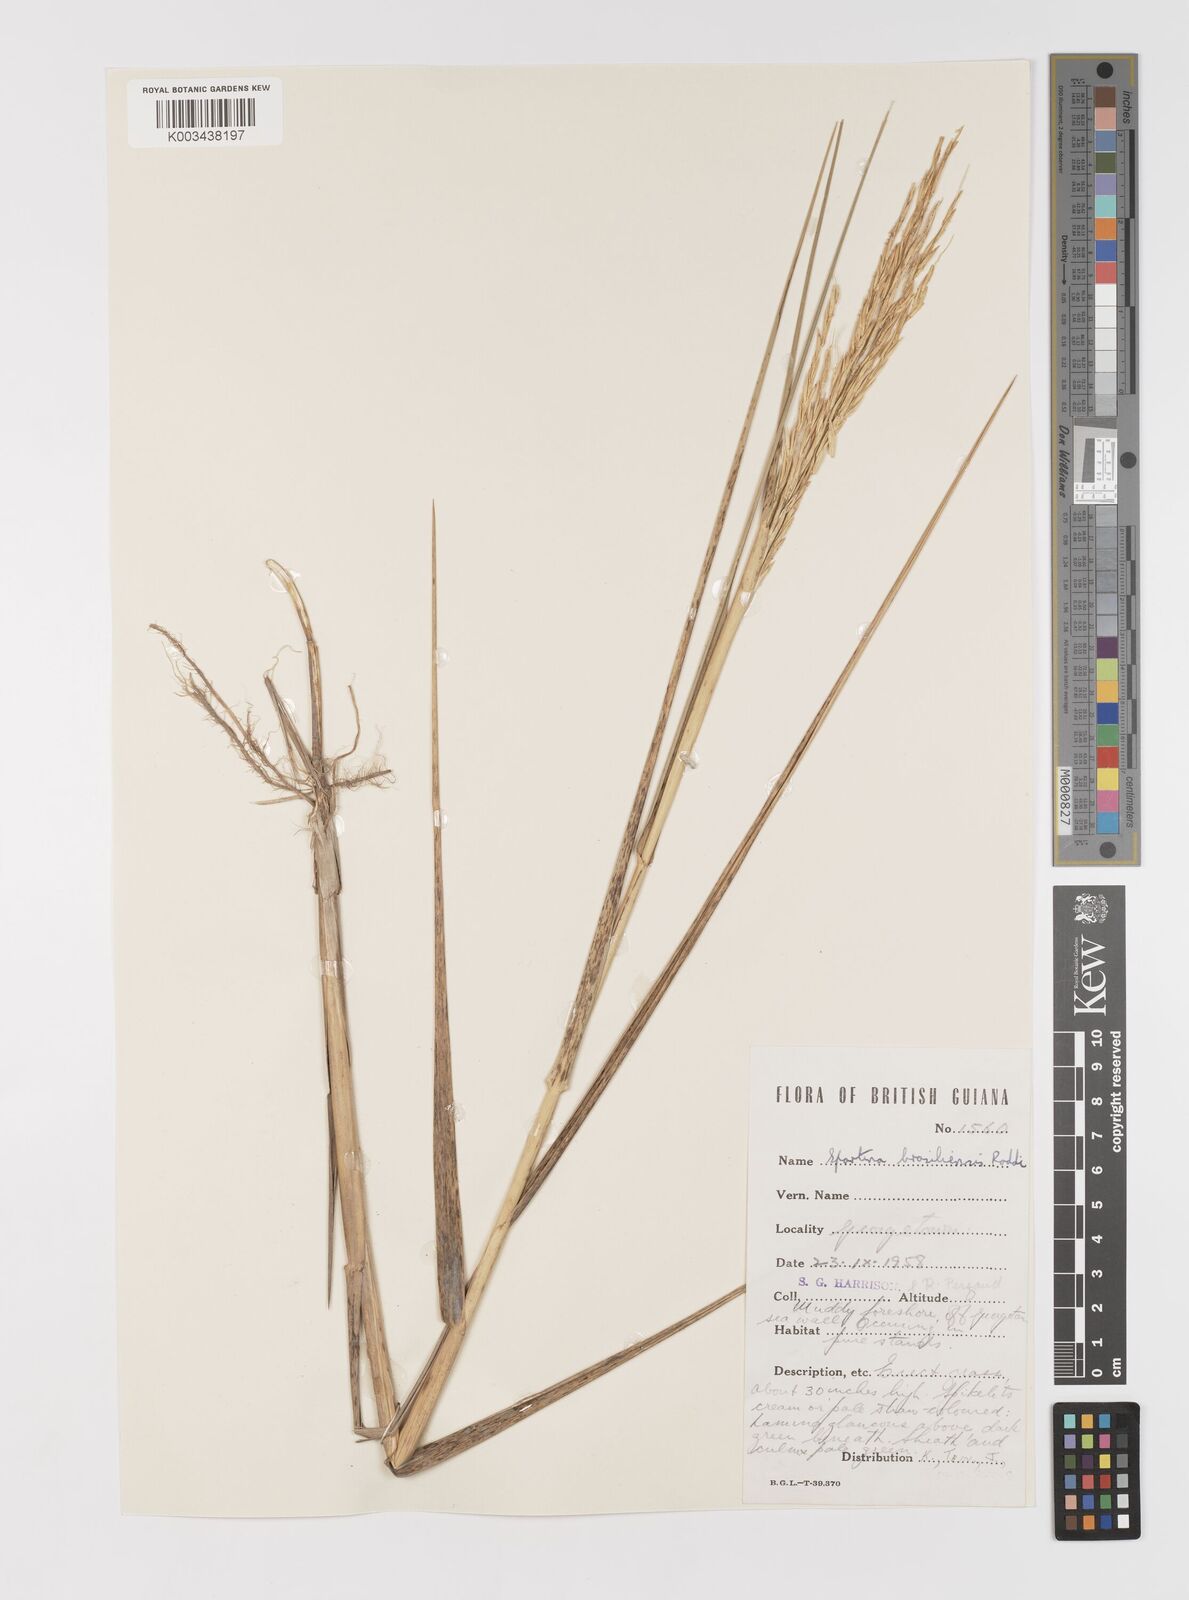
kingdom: Plantae
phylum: Tracheophyta
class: Liliopsida
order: Poales
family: Poaceae
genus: Sporobolus
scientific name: Sporobolus alterniflorus
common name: Atlantic cordgrass
